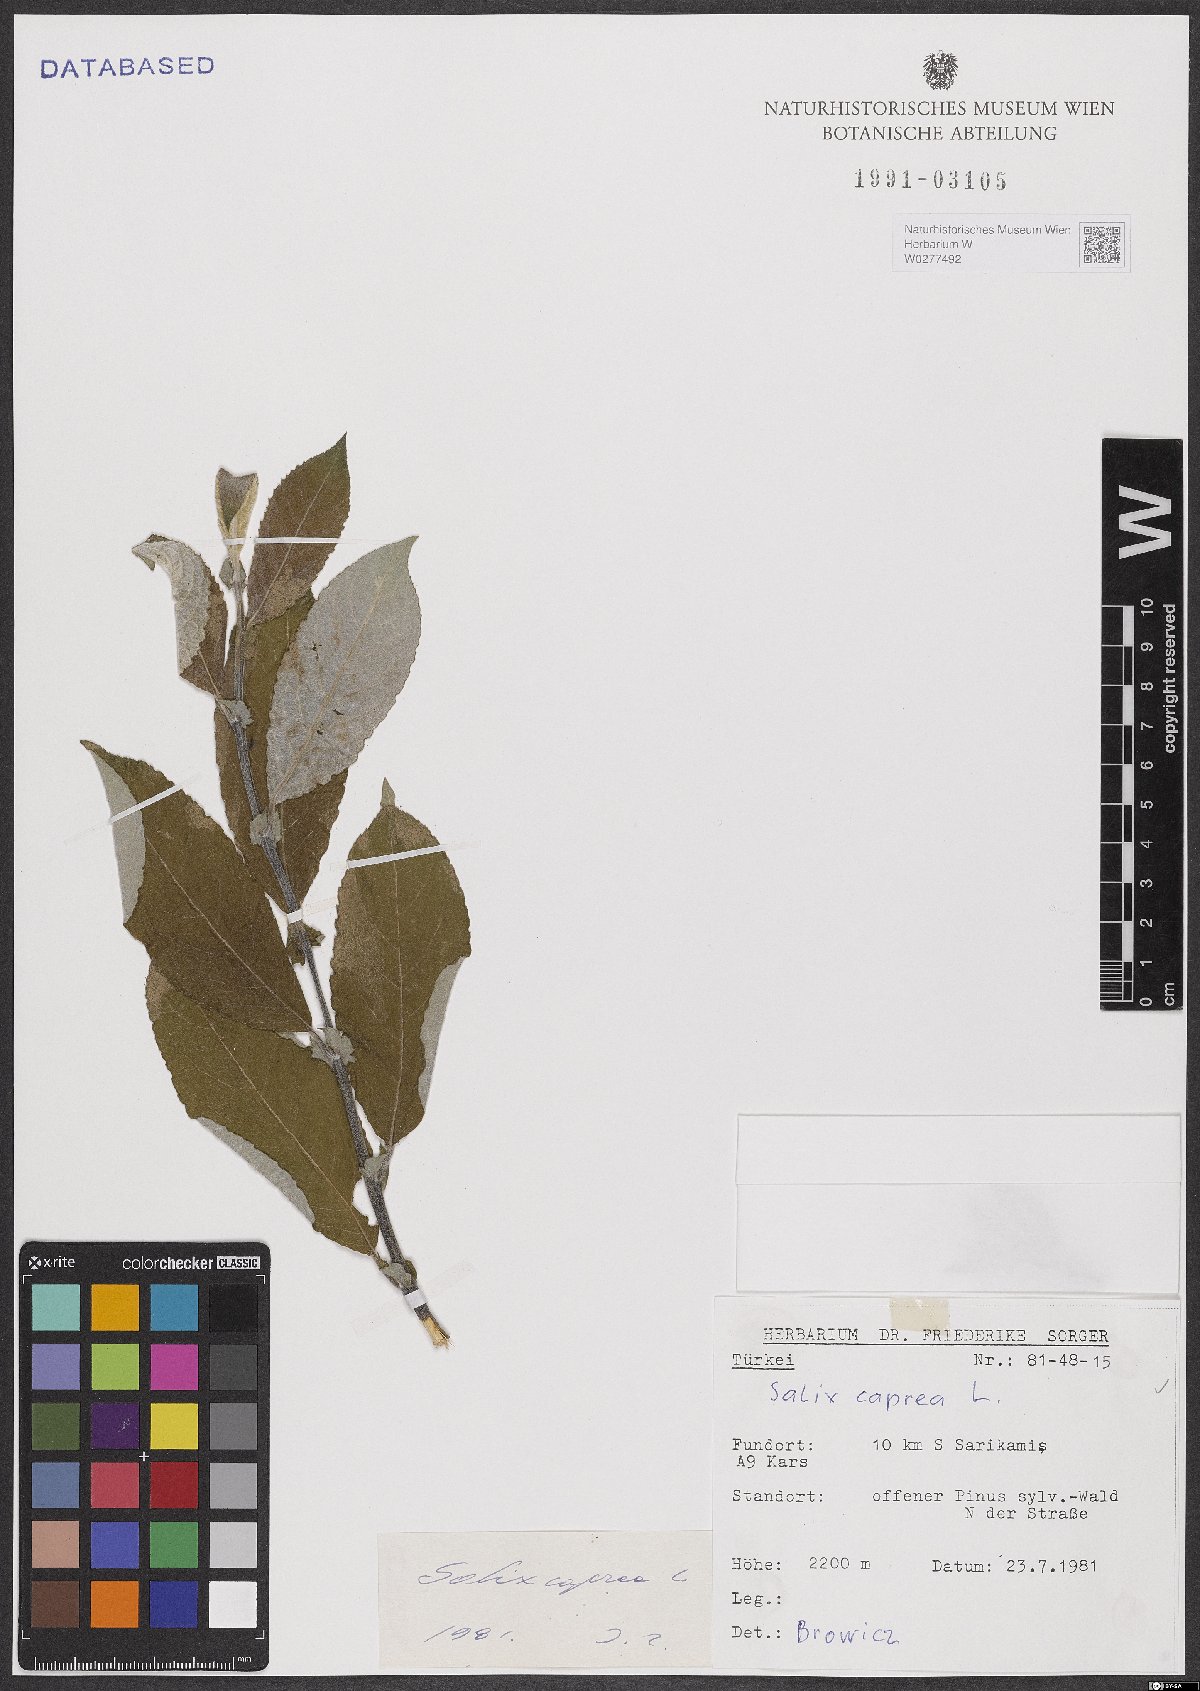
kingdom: Plantae
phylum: Tracheophyta
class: Magnoliopsida
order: Malpighiales
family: Salicaceae
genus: Salix
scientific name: Salix caprea
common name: Goat willow
